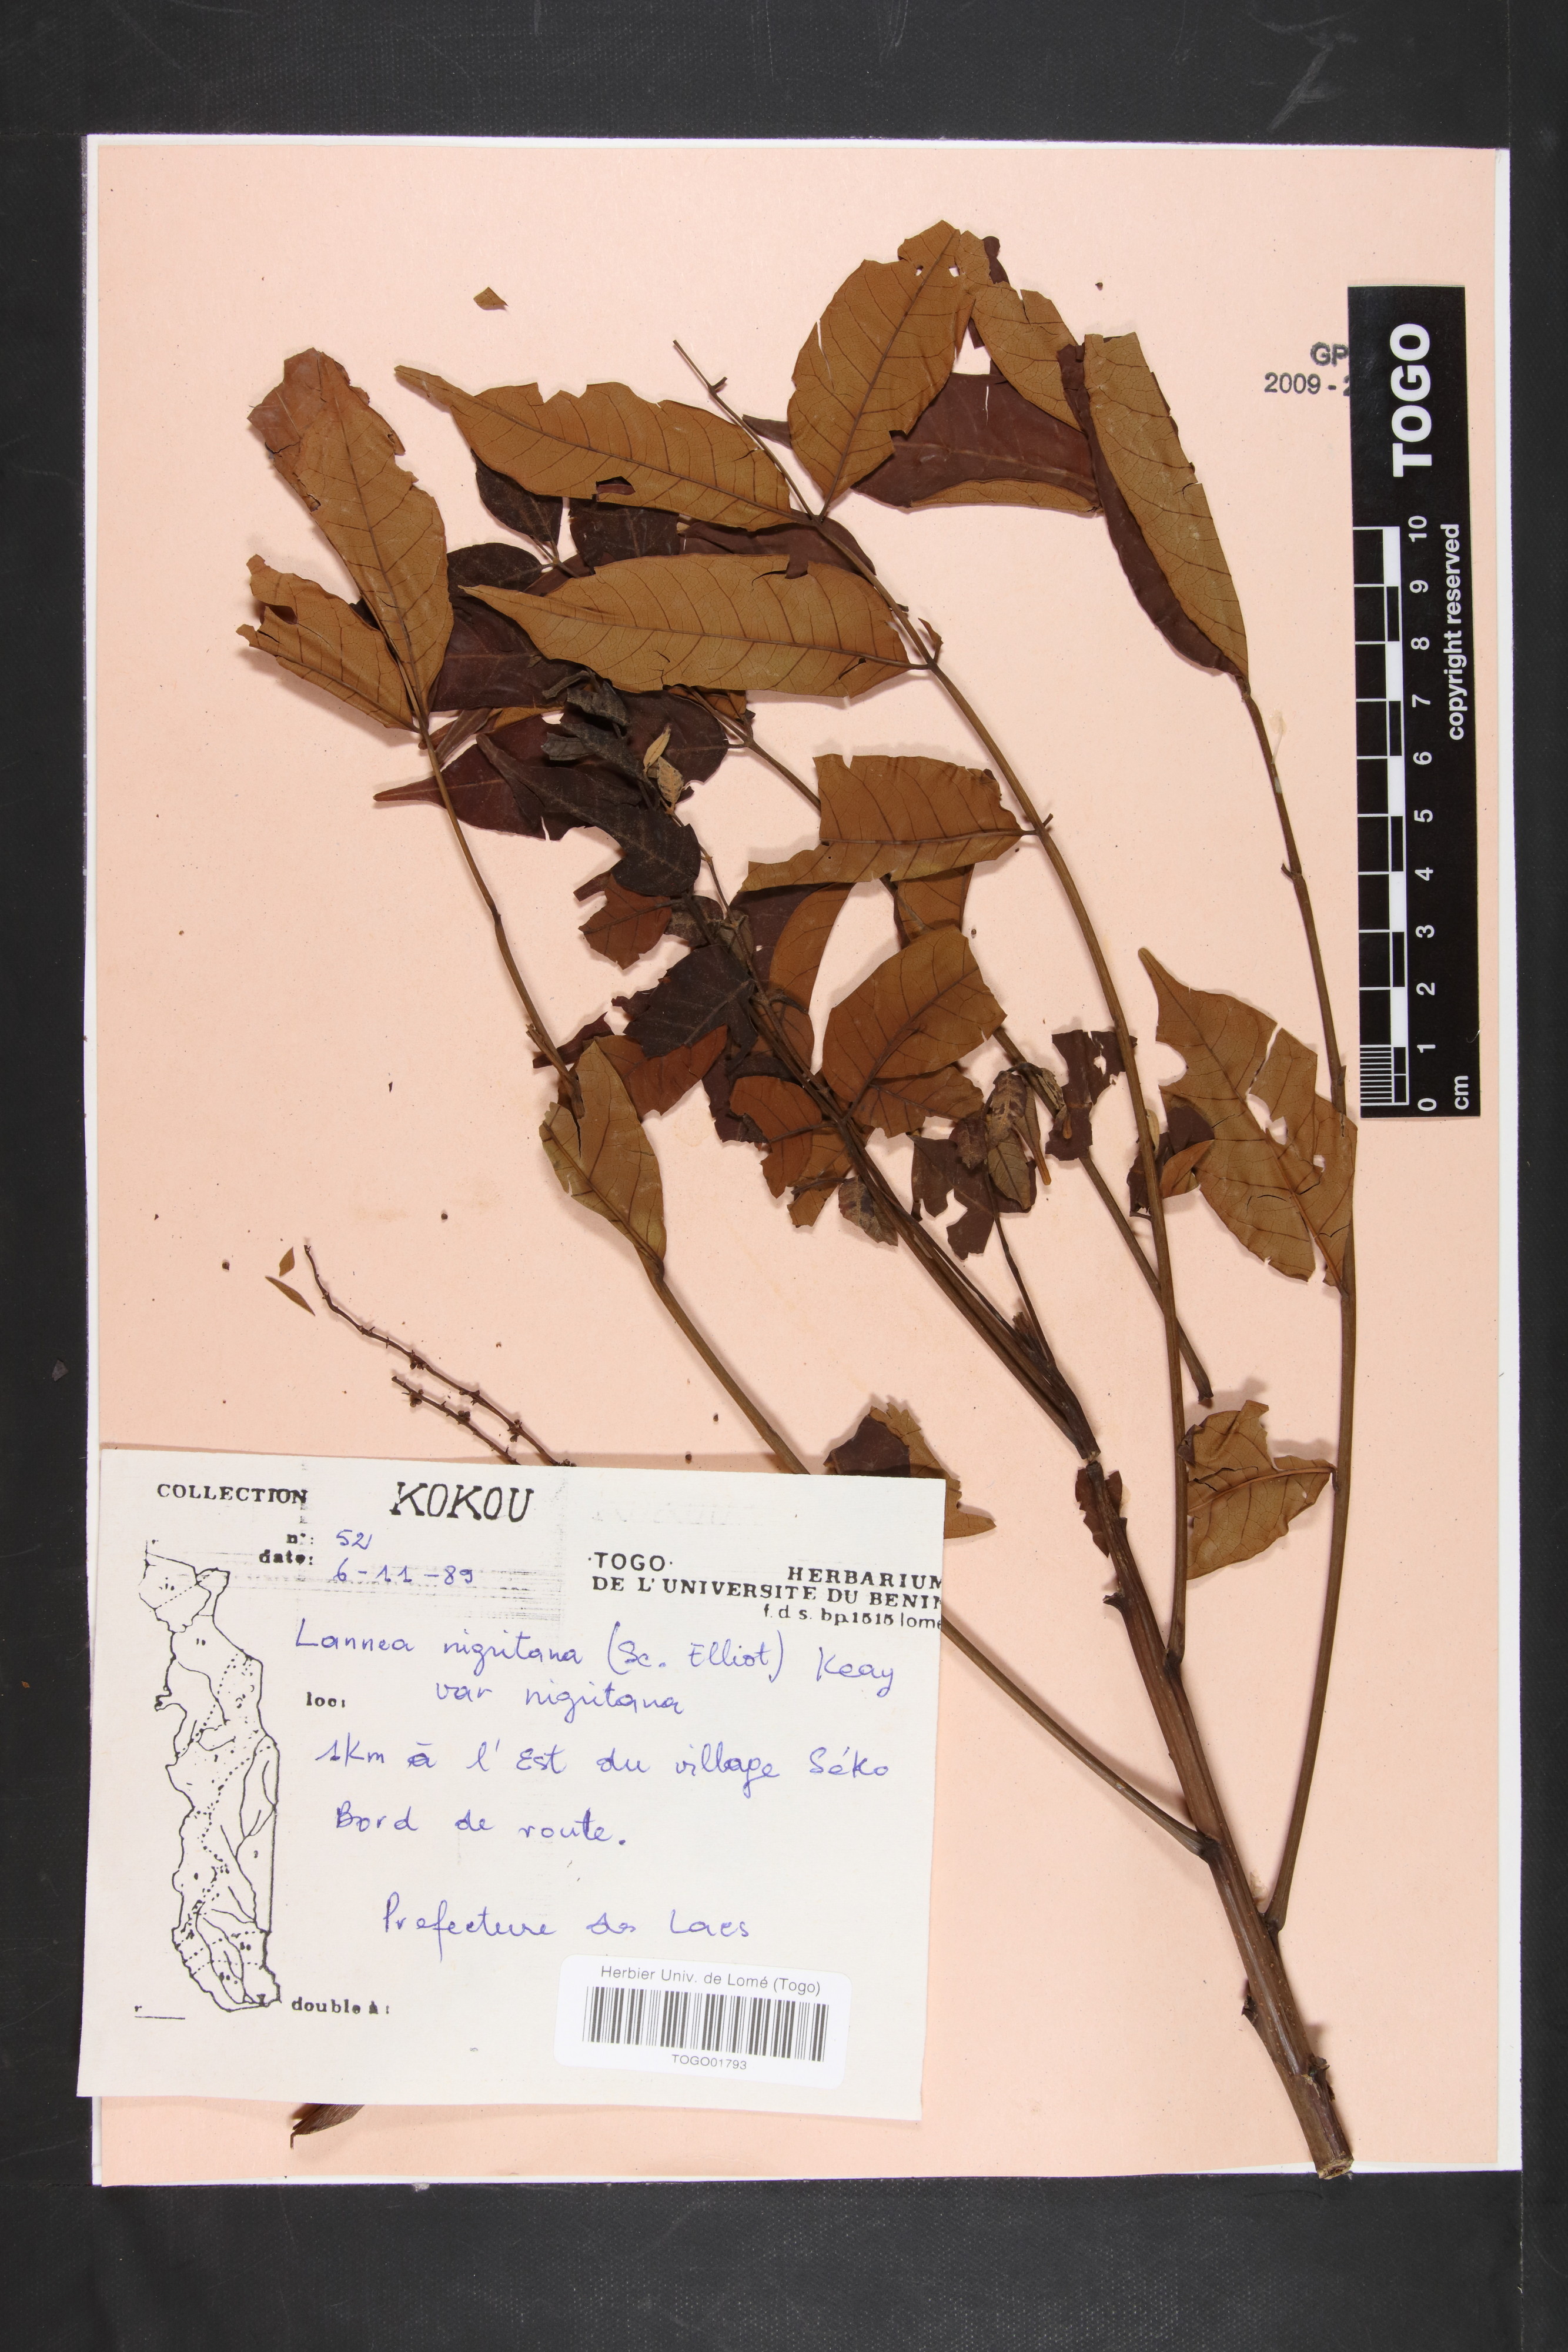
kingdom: Plantae
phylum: Tracheophyta
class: Magnoliopsida
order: Sapindales
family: Anacardiaceae
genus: Lannea
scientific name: Lannea nigritana
